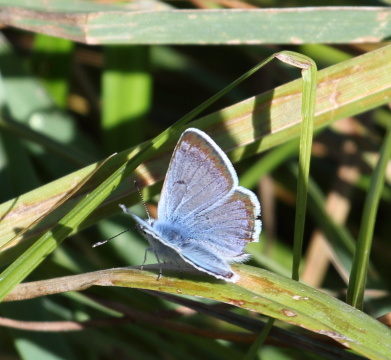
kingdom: Animalia
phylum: Arthropoda
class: Insecta
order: Lepidoptera
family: Lycaenidae
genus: Icaricia
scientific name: Icaricia icarioides
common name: Boisduval's Blue
